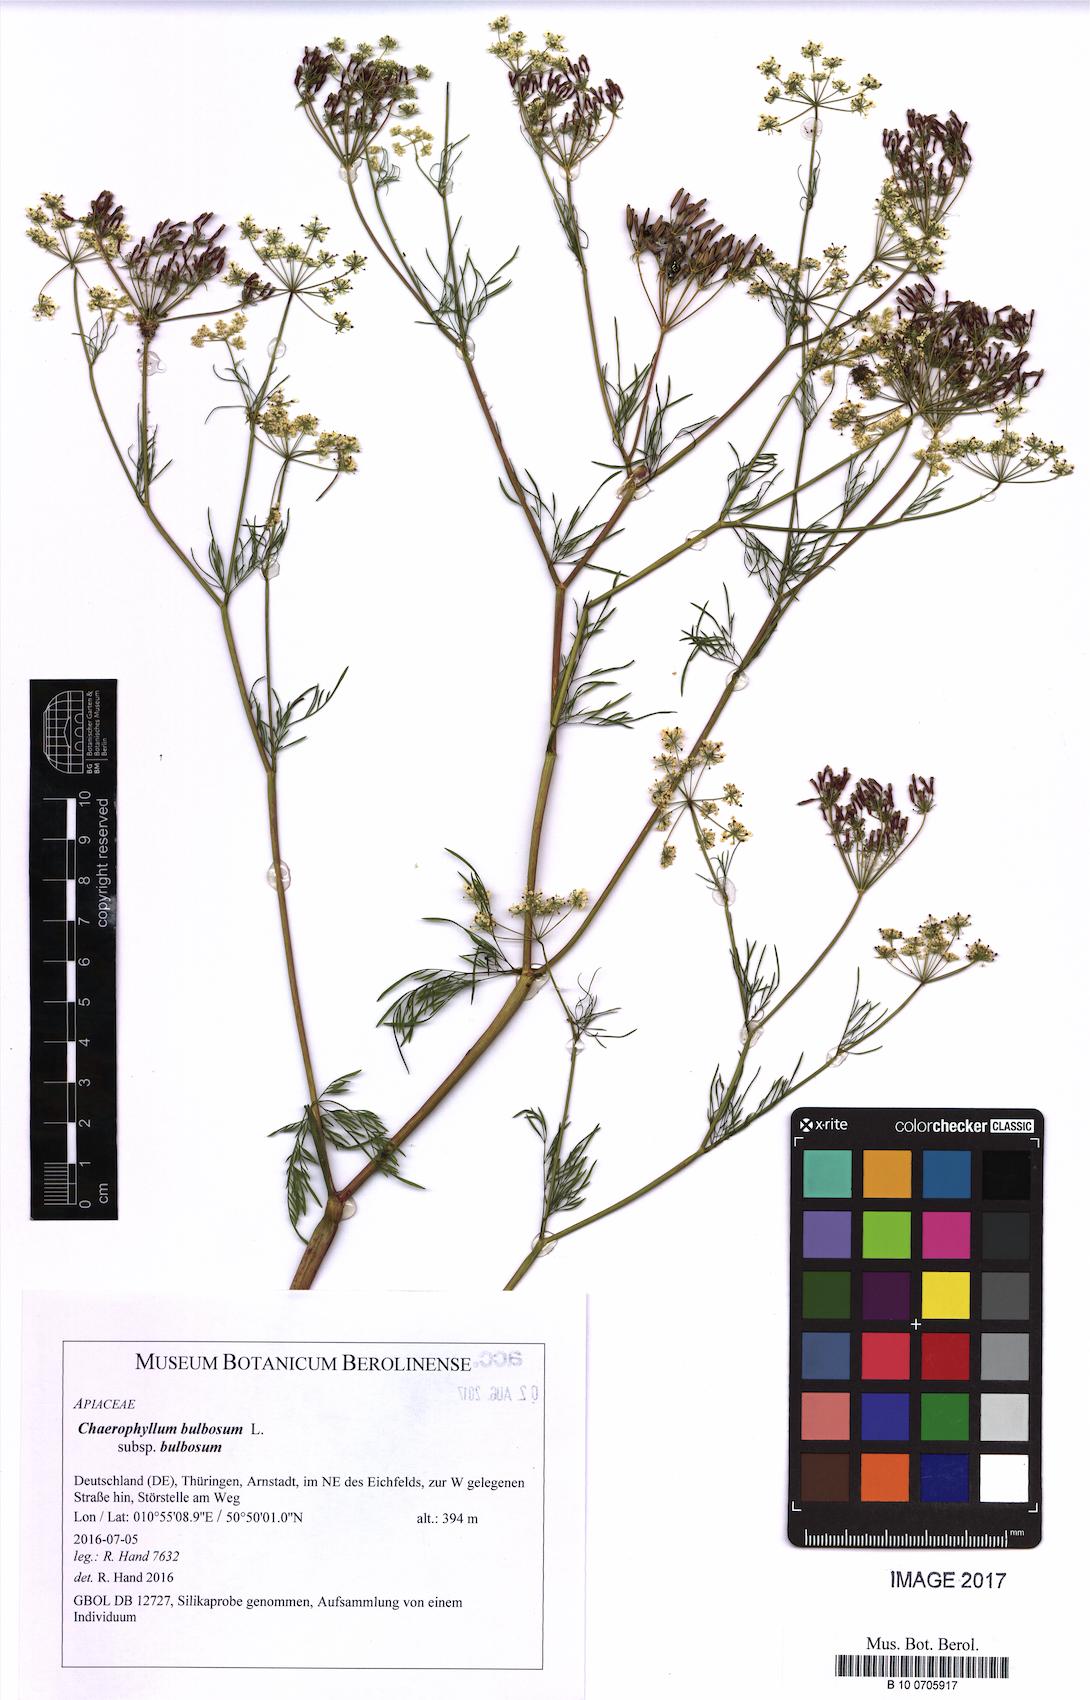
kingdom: Plantae
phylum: Tracheophyta
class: Magnoliopsida
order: Apiales
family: Apiaceae
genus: Chaerophyllum
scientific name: Chaerophyllum bulbosum
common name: Bulbous chervil
